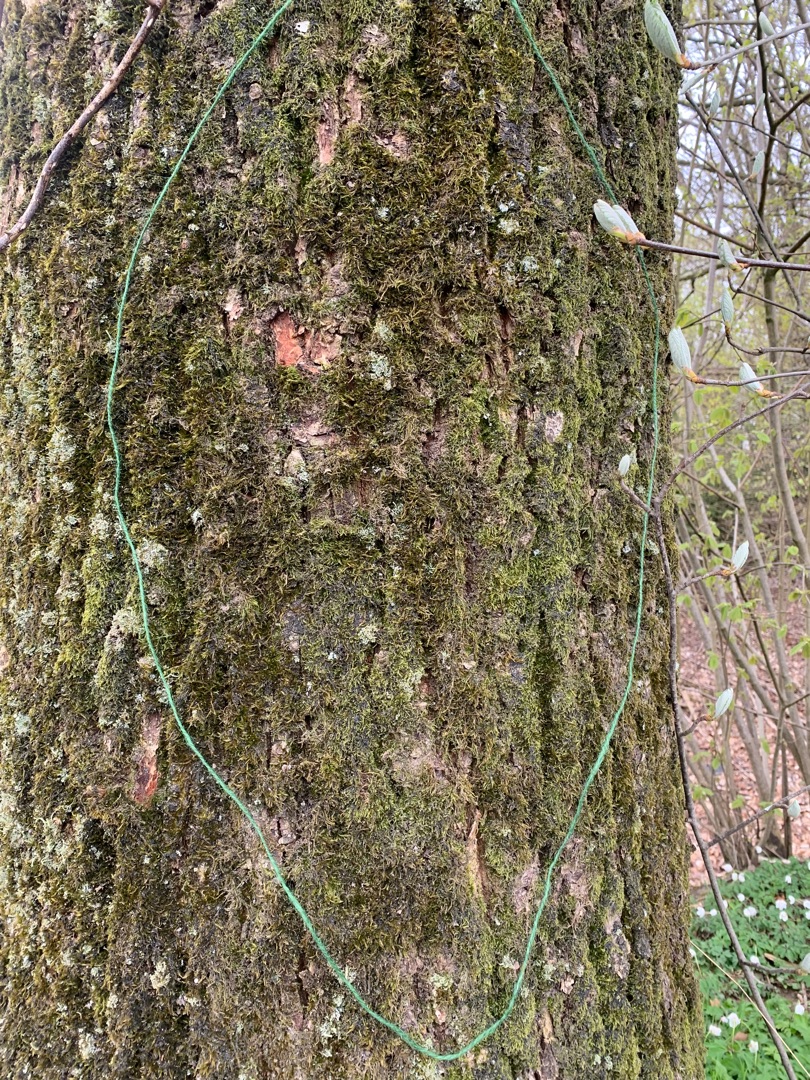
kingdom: Plantae
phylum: Bryophyta
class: Bryopsida
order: Hypnales
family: Hypnaceae
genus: Hypnum
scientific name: Hypnum
